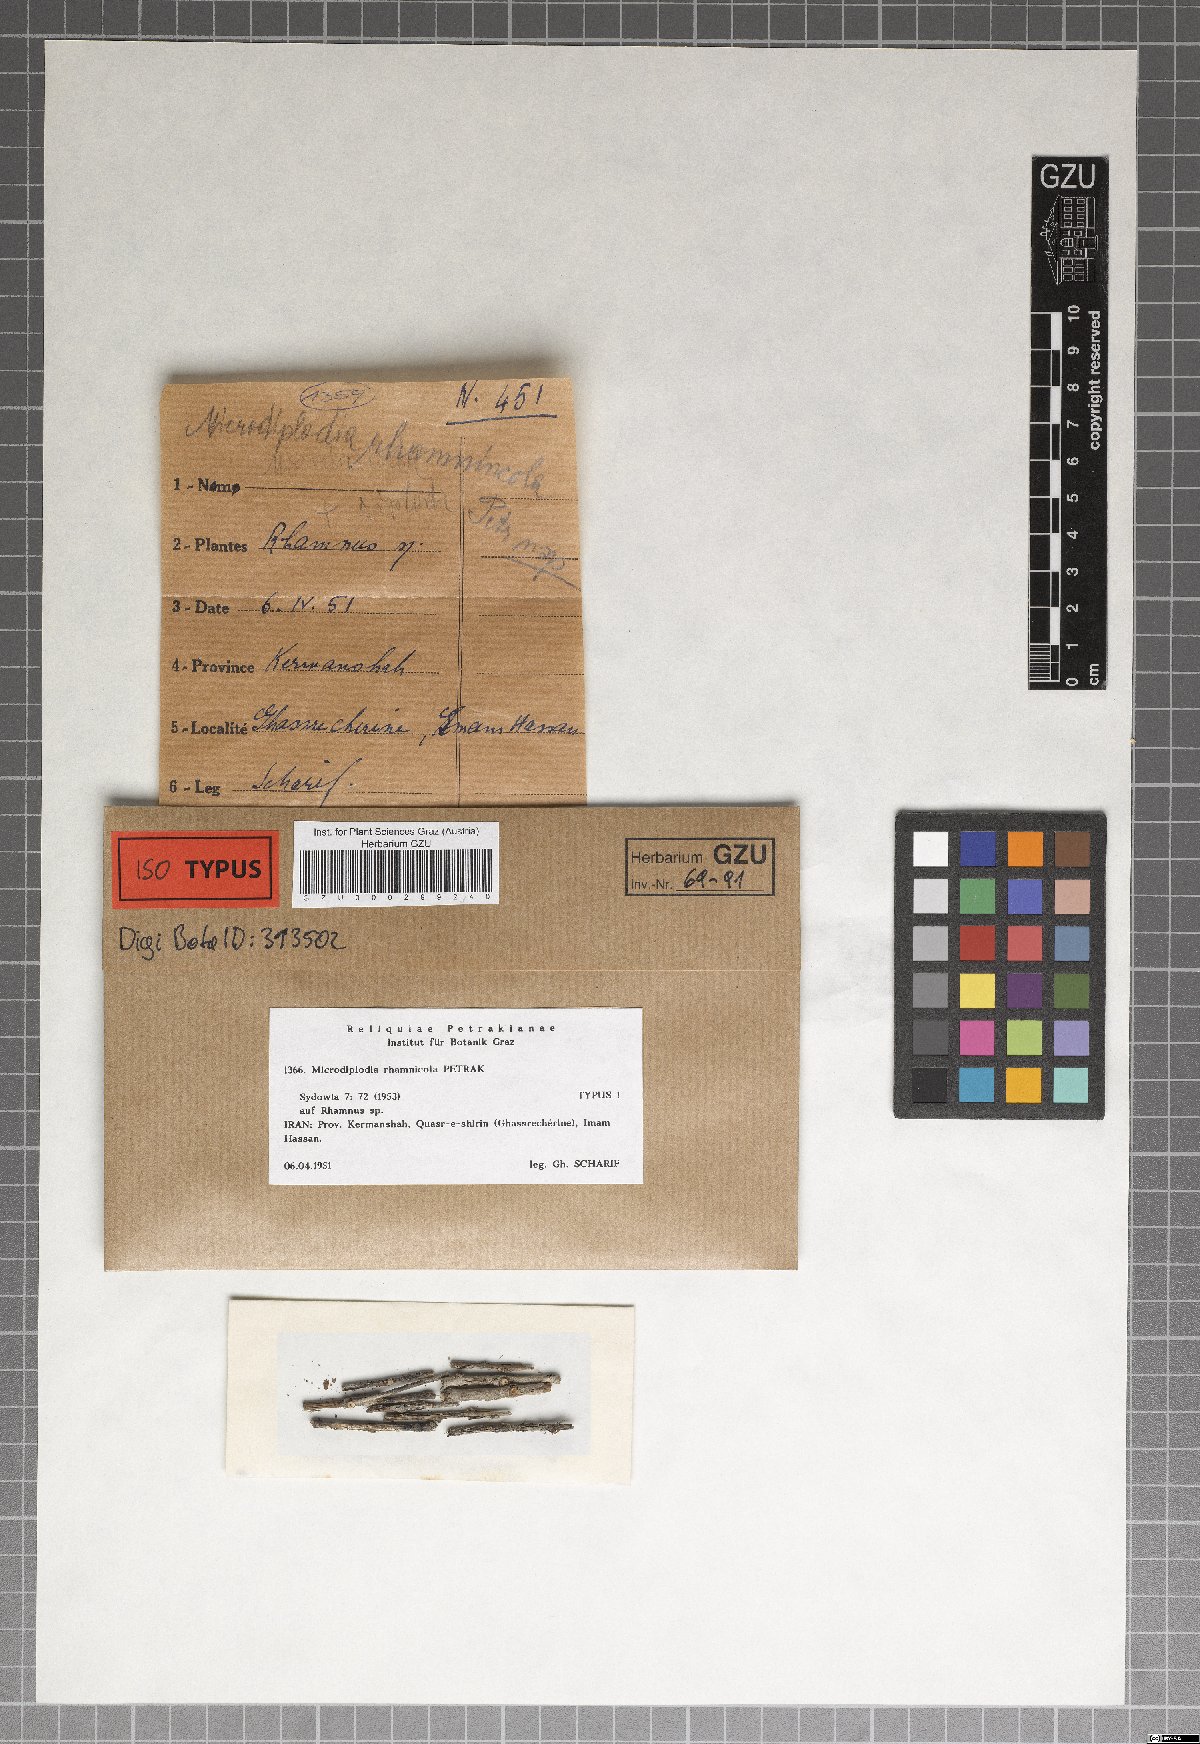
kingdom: Fungi
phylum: Ascomycota
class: Dothideomycetes
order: Botryosphaeriales
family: Botryosphaeriaceae
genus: Microdiplodia
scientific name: Microdiplodia rhamnicola
